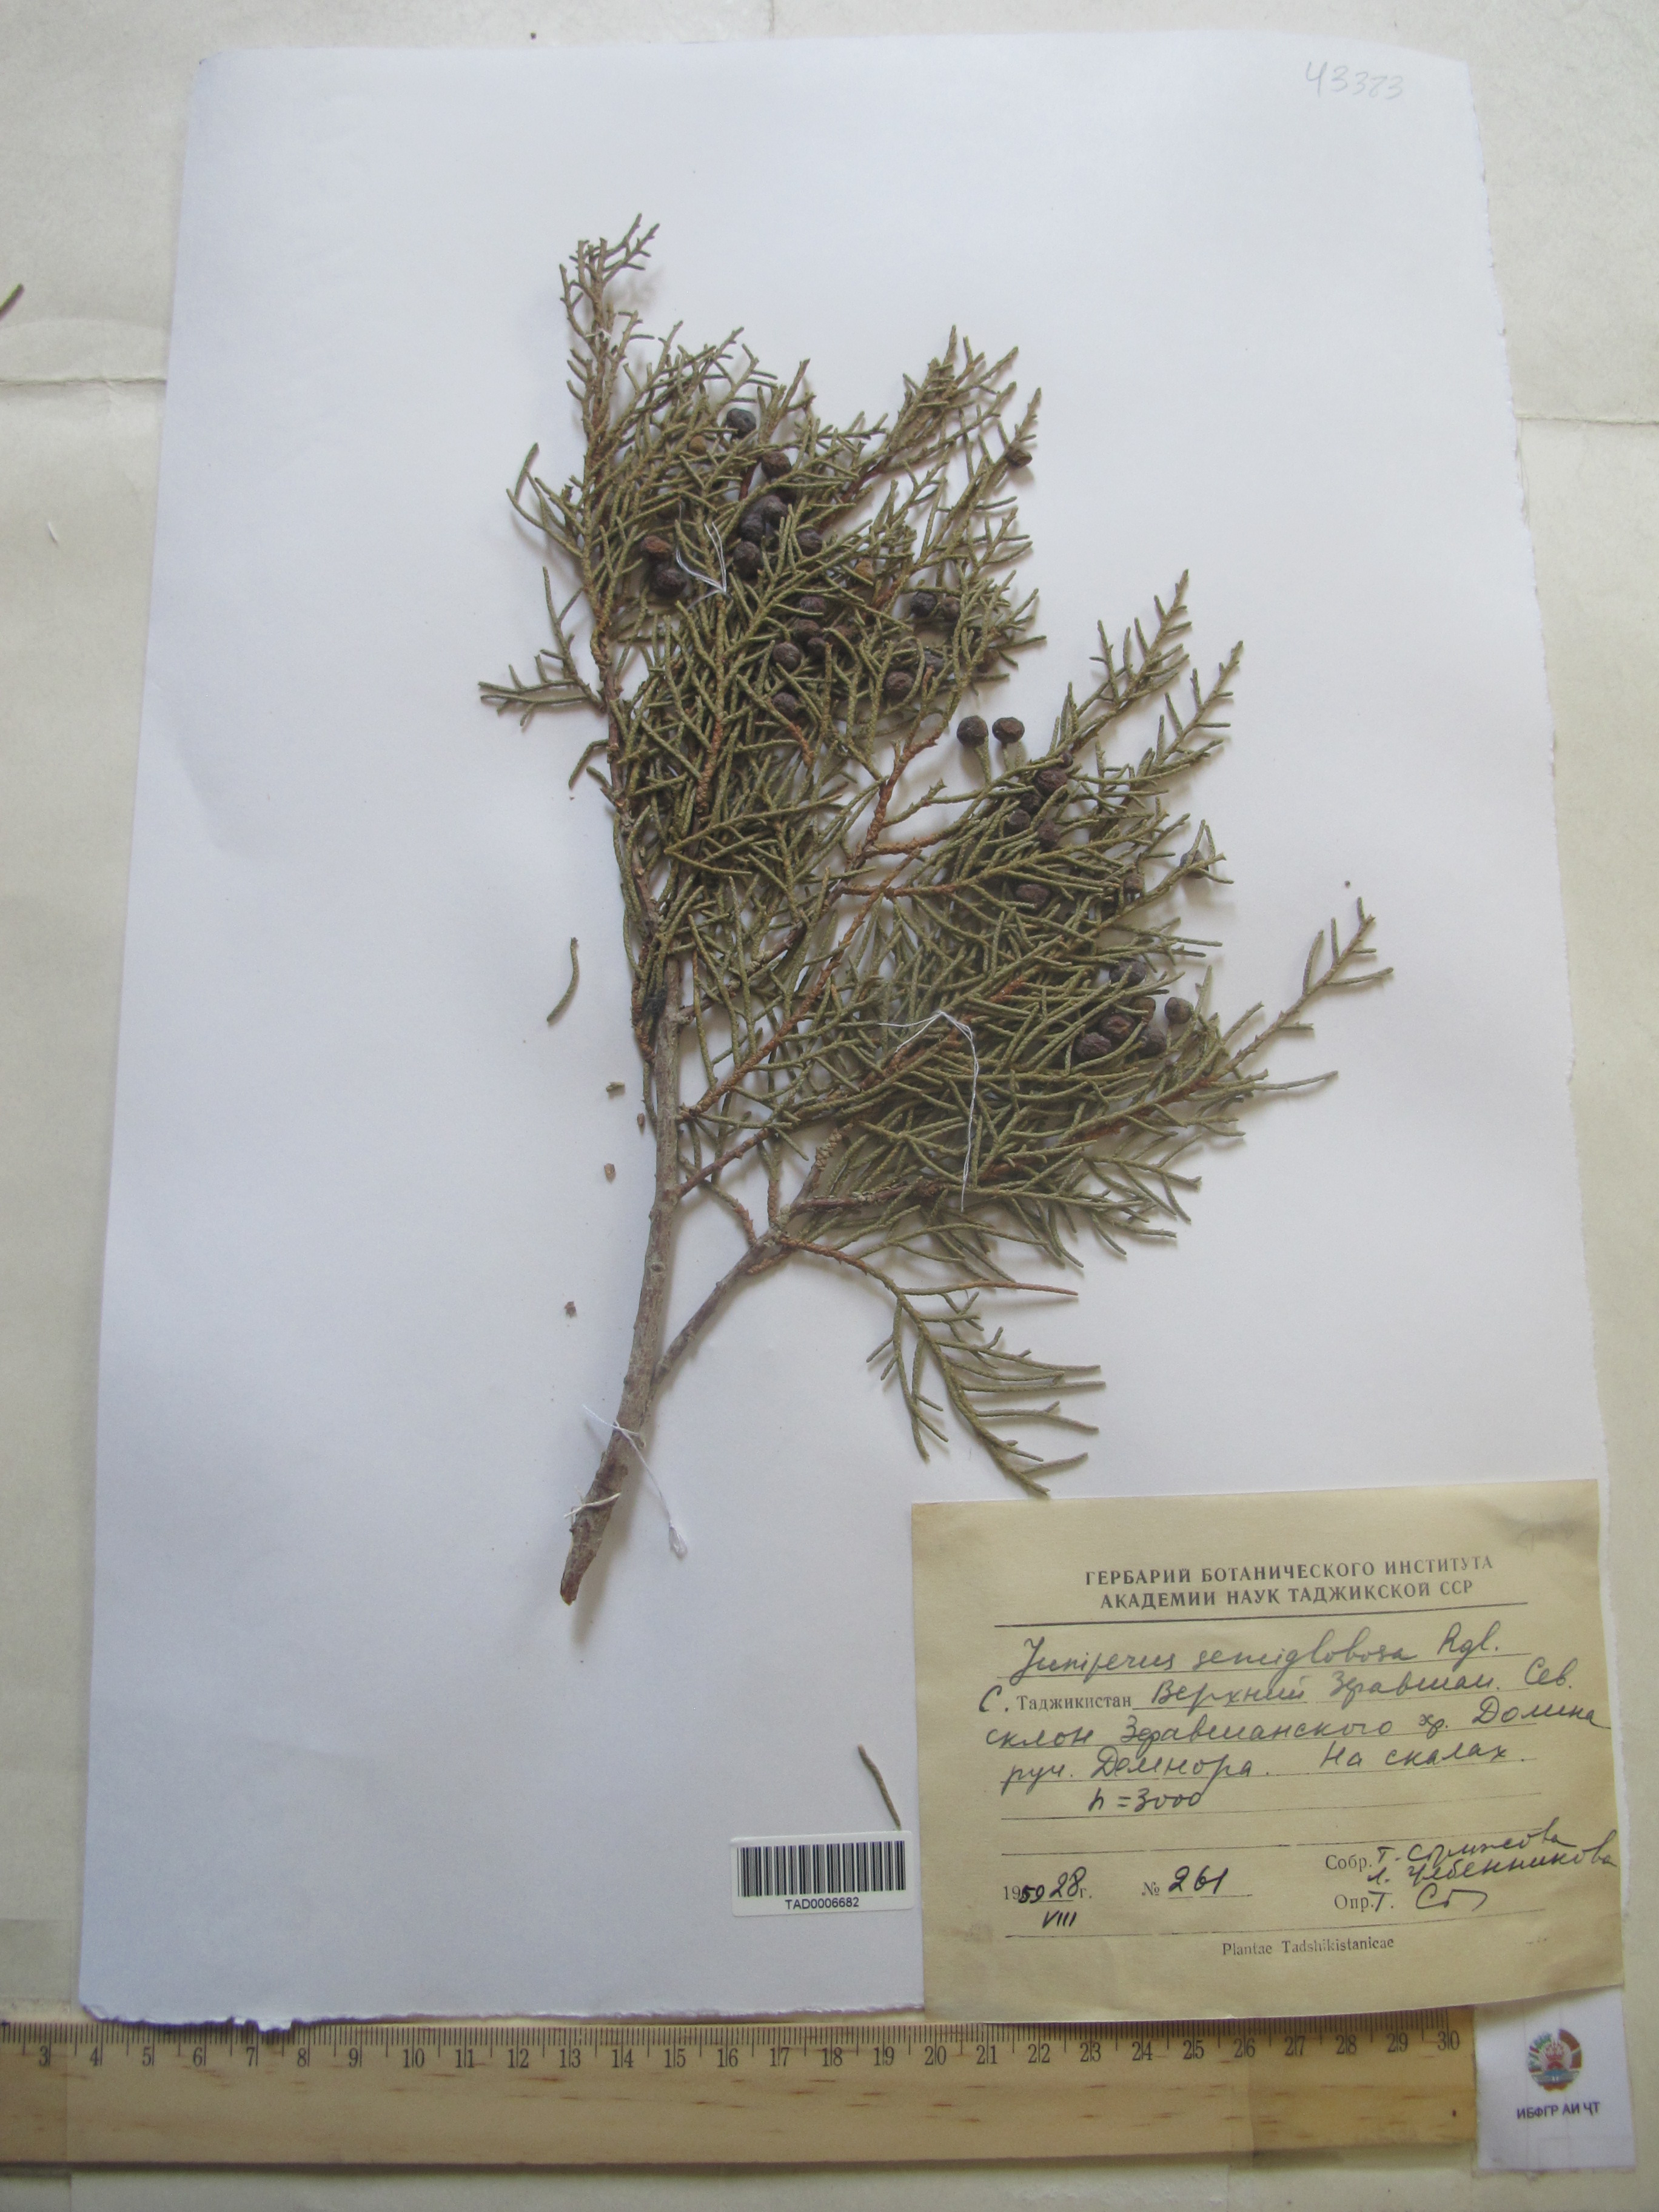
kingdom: Plantae
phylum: Tracheophyta
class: Pinopsida
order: Pinales
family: Cupressaceae
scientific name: Cupressaceae
